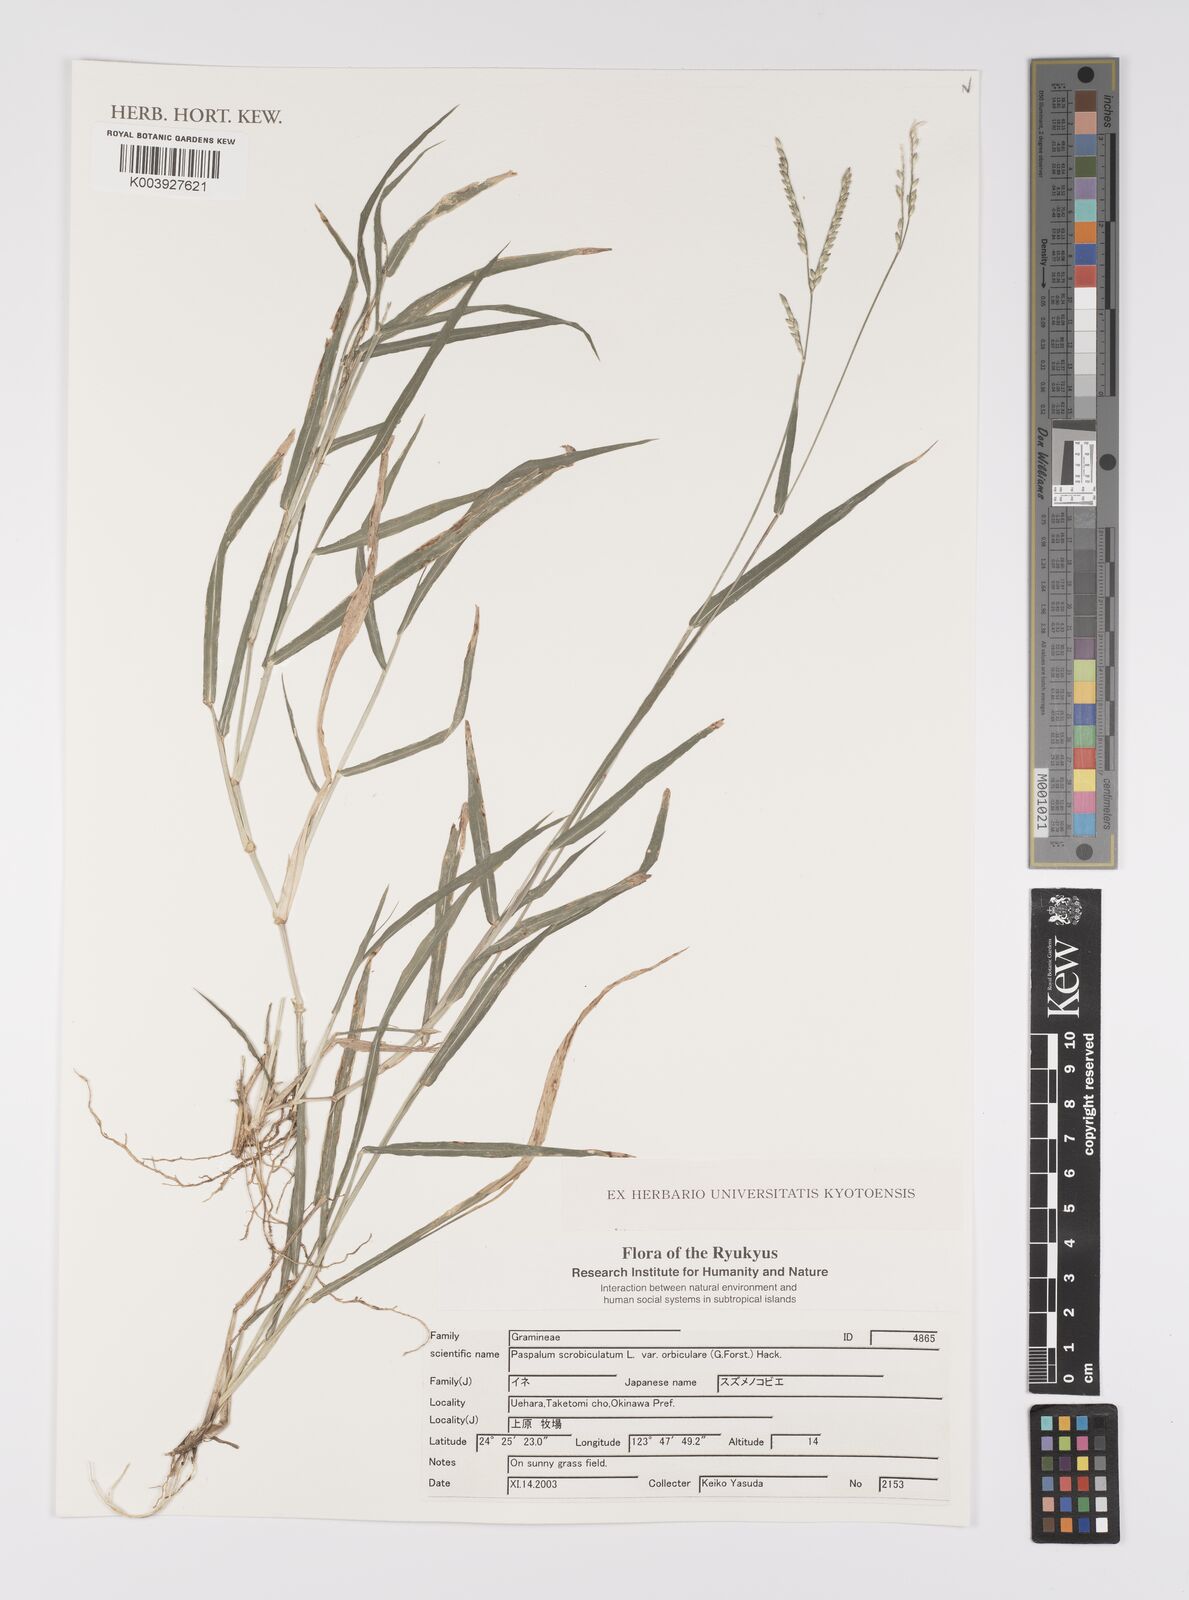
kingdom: Plantae
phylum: Tracheophyta
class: Liliopsida
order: Poales
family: Poaceae
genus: Paspalum
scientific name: Paspalum scrobiculatum
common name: Kodo millet
